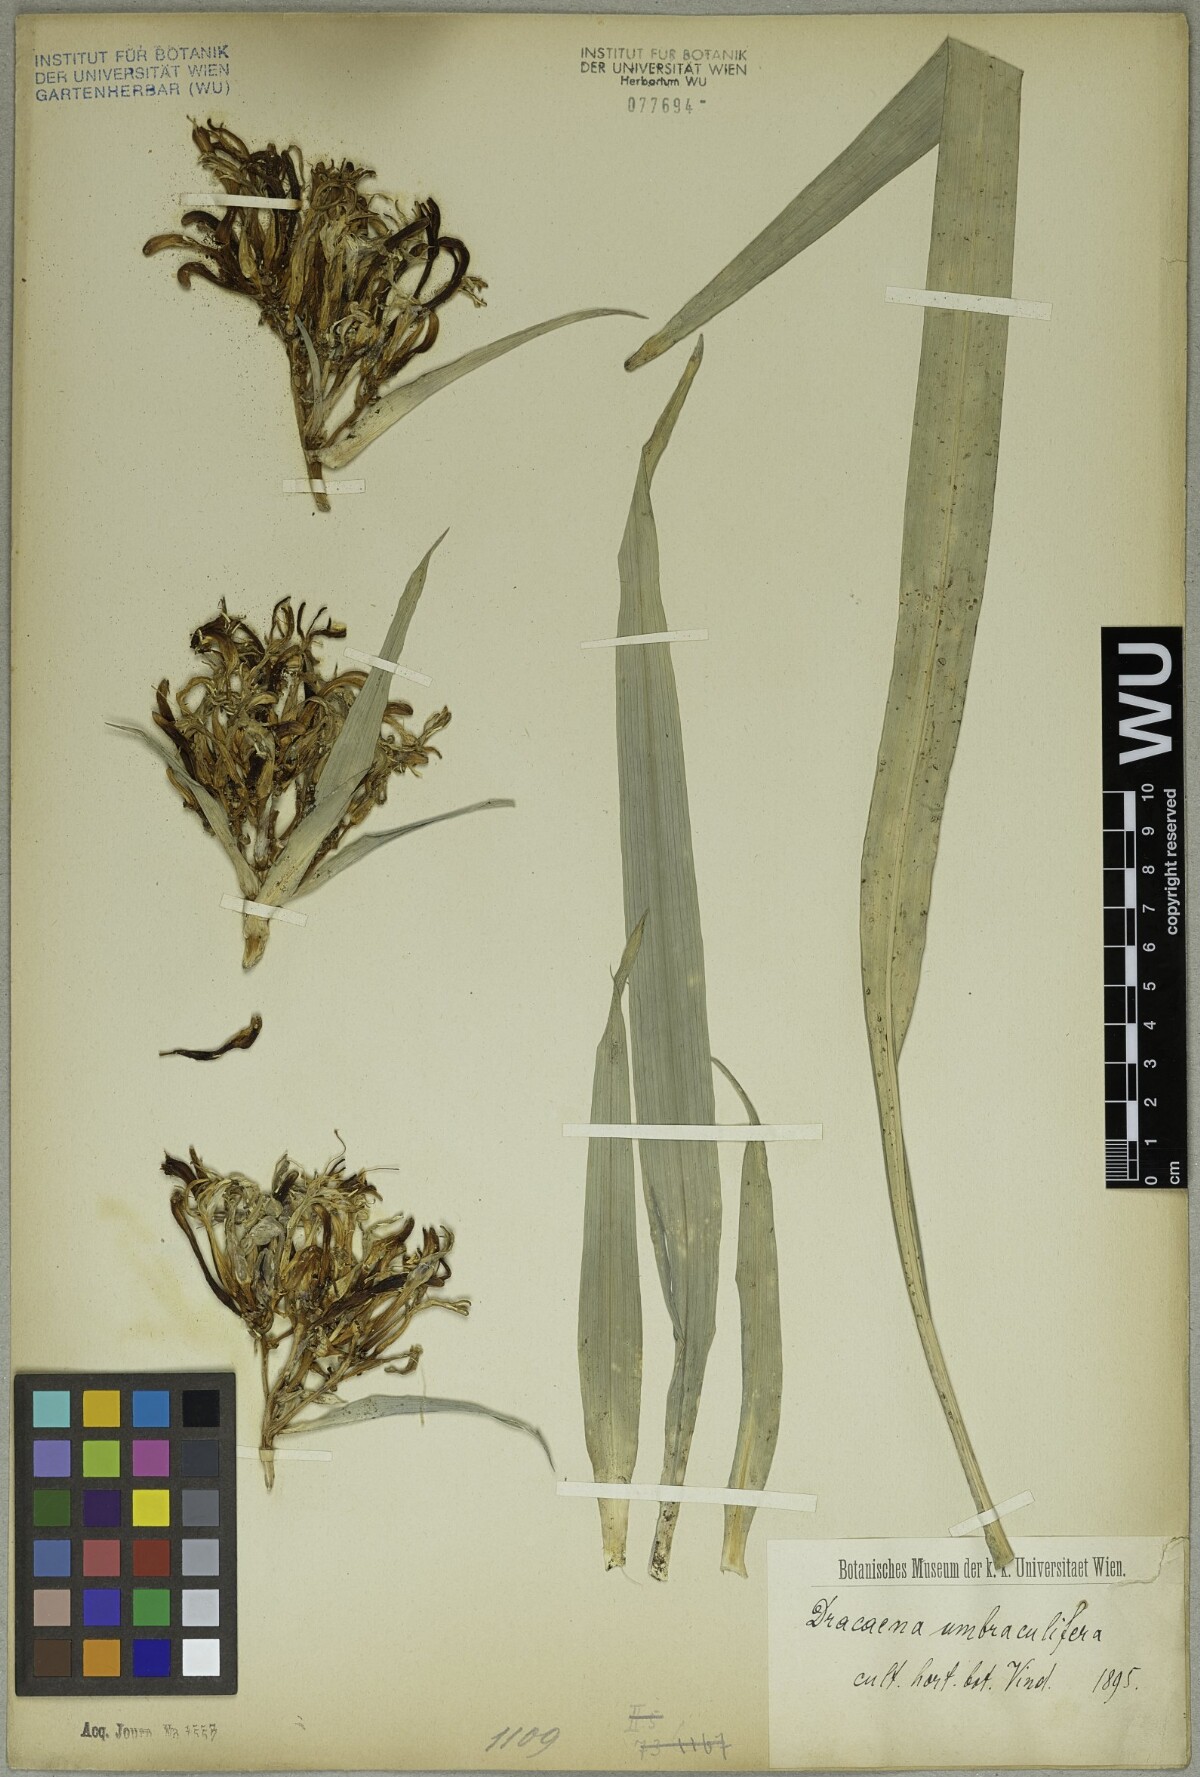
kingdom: Plantae
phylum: Tracheophyta
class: Liliopsida
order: Asparagales
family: Asparagaceae
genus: Dracaena
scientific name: Dracaena umbraculifera
